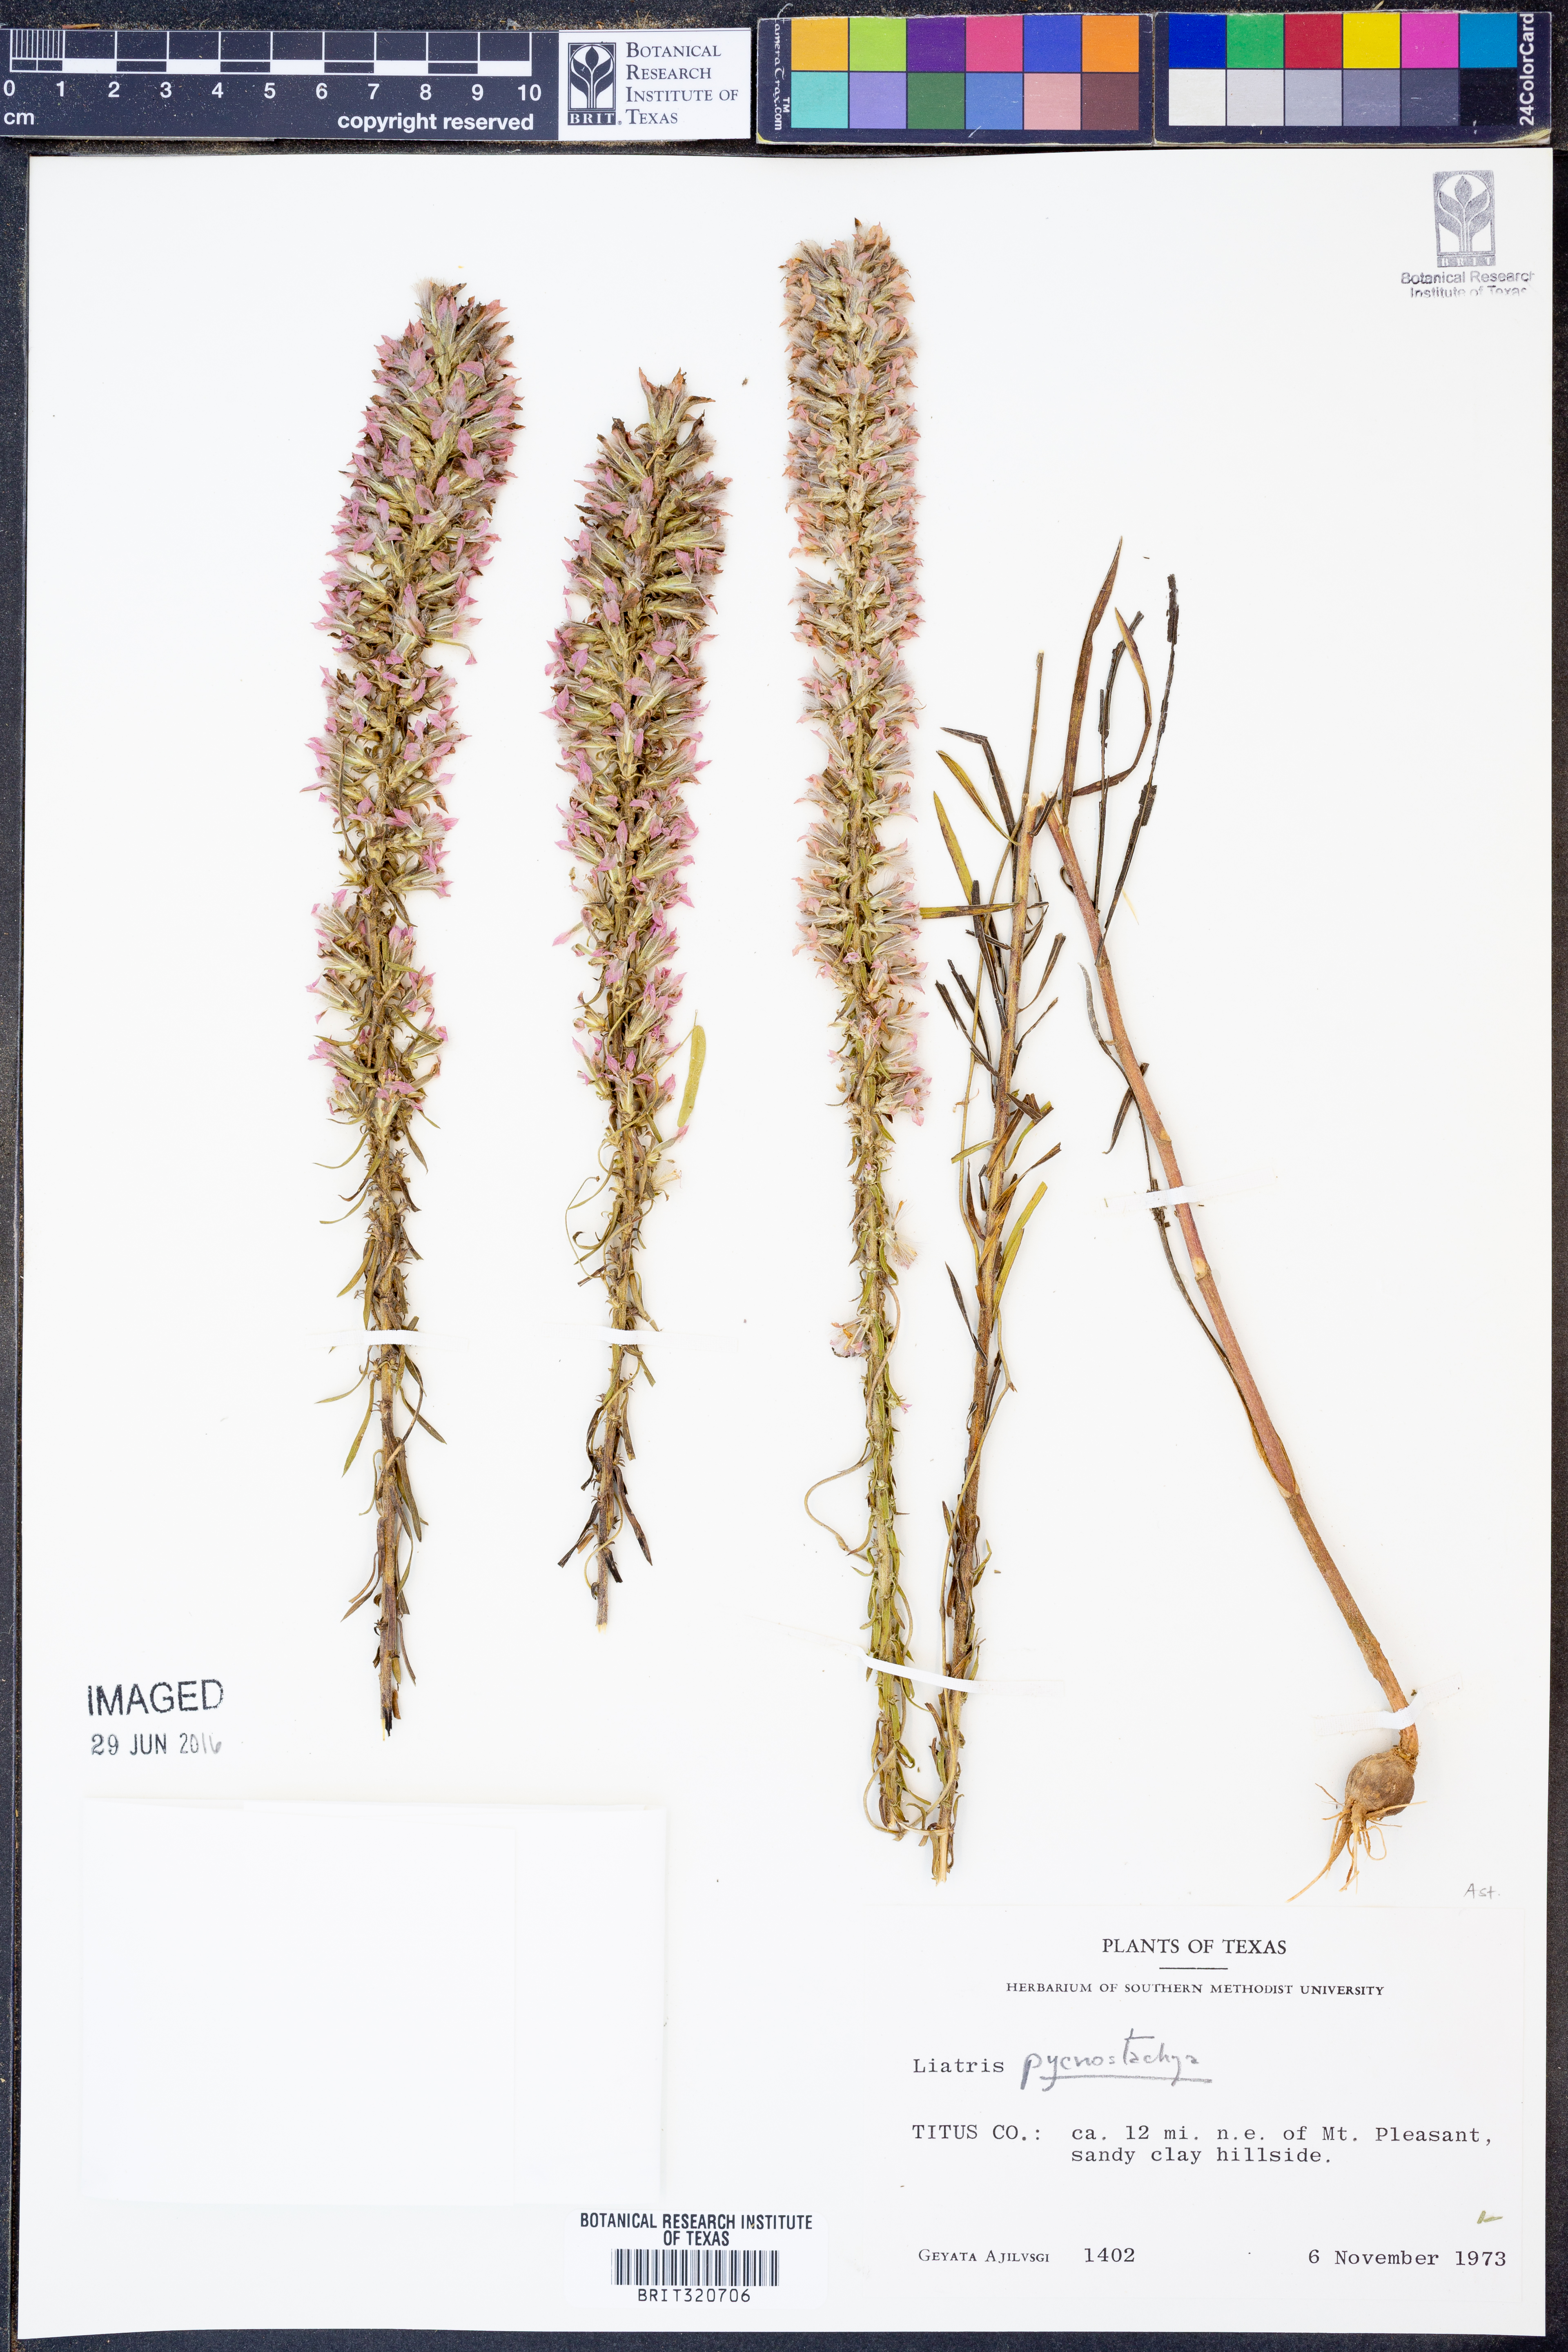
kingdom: Plantae
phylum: Tracheophyta
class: Magnoliopsida
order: Asterales
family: Asteraceae
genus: Liatris
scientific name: Liatris pycnostachya
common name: Cattail gayfeather
